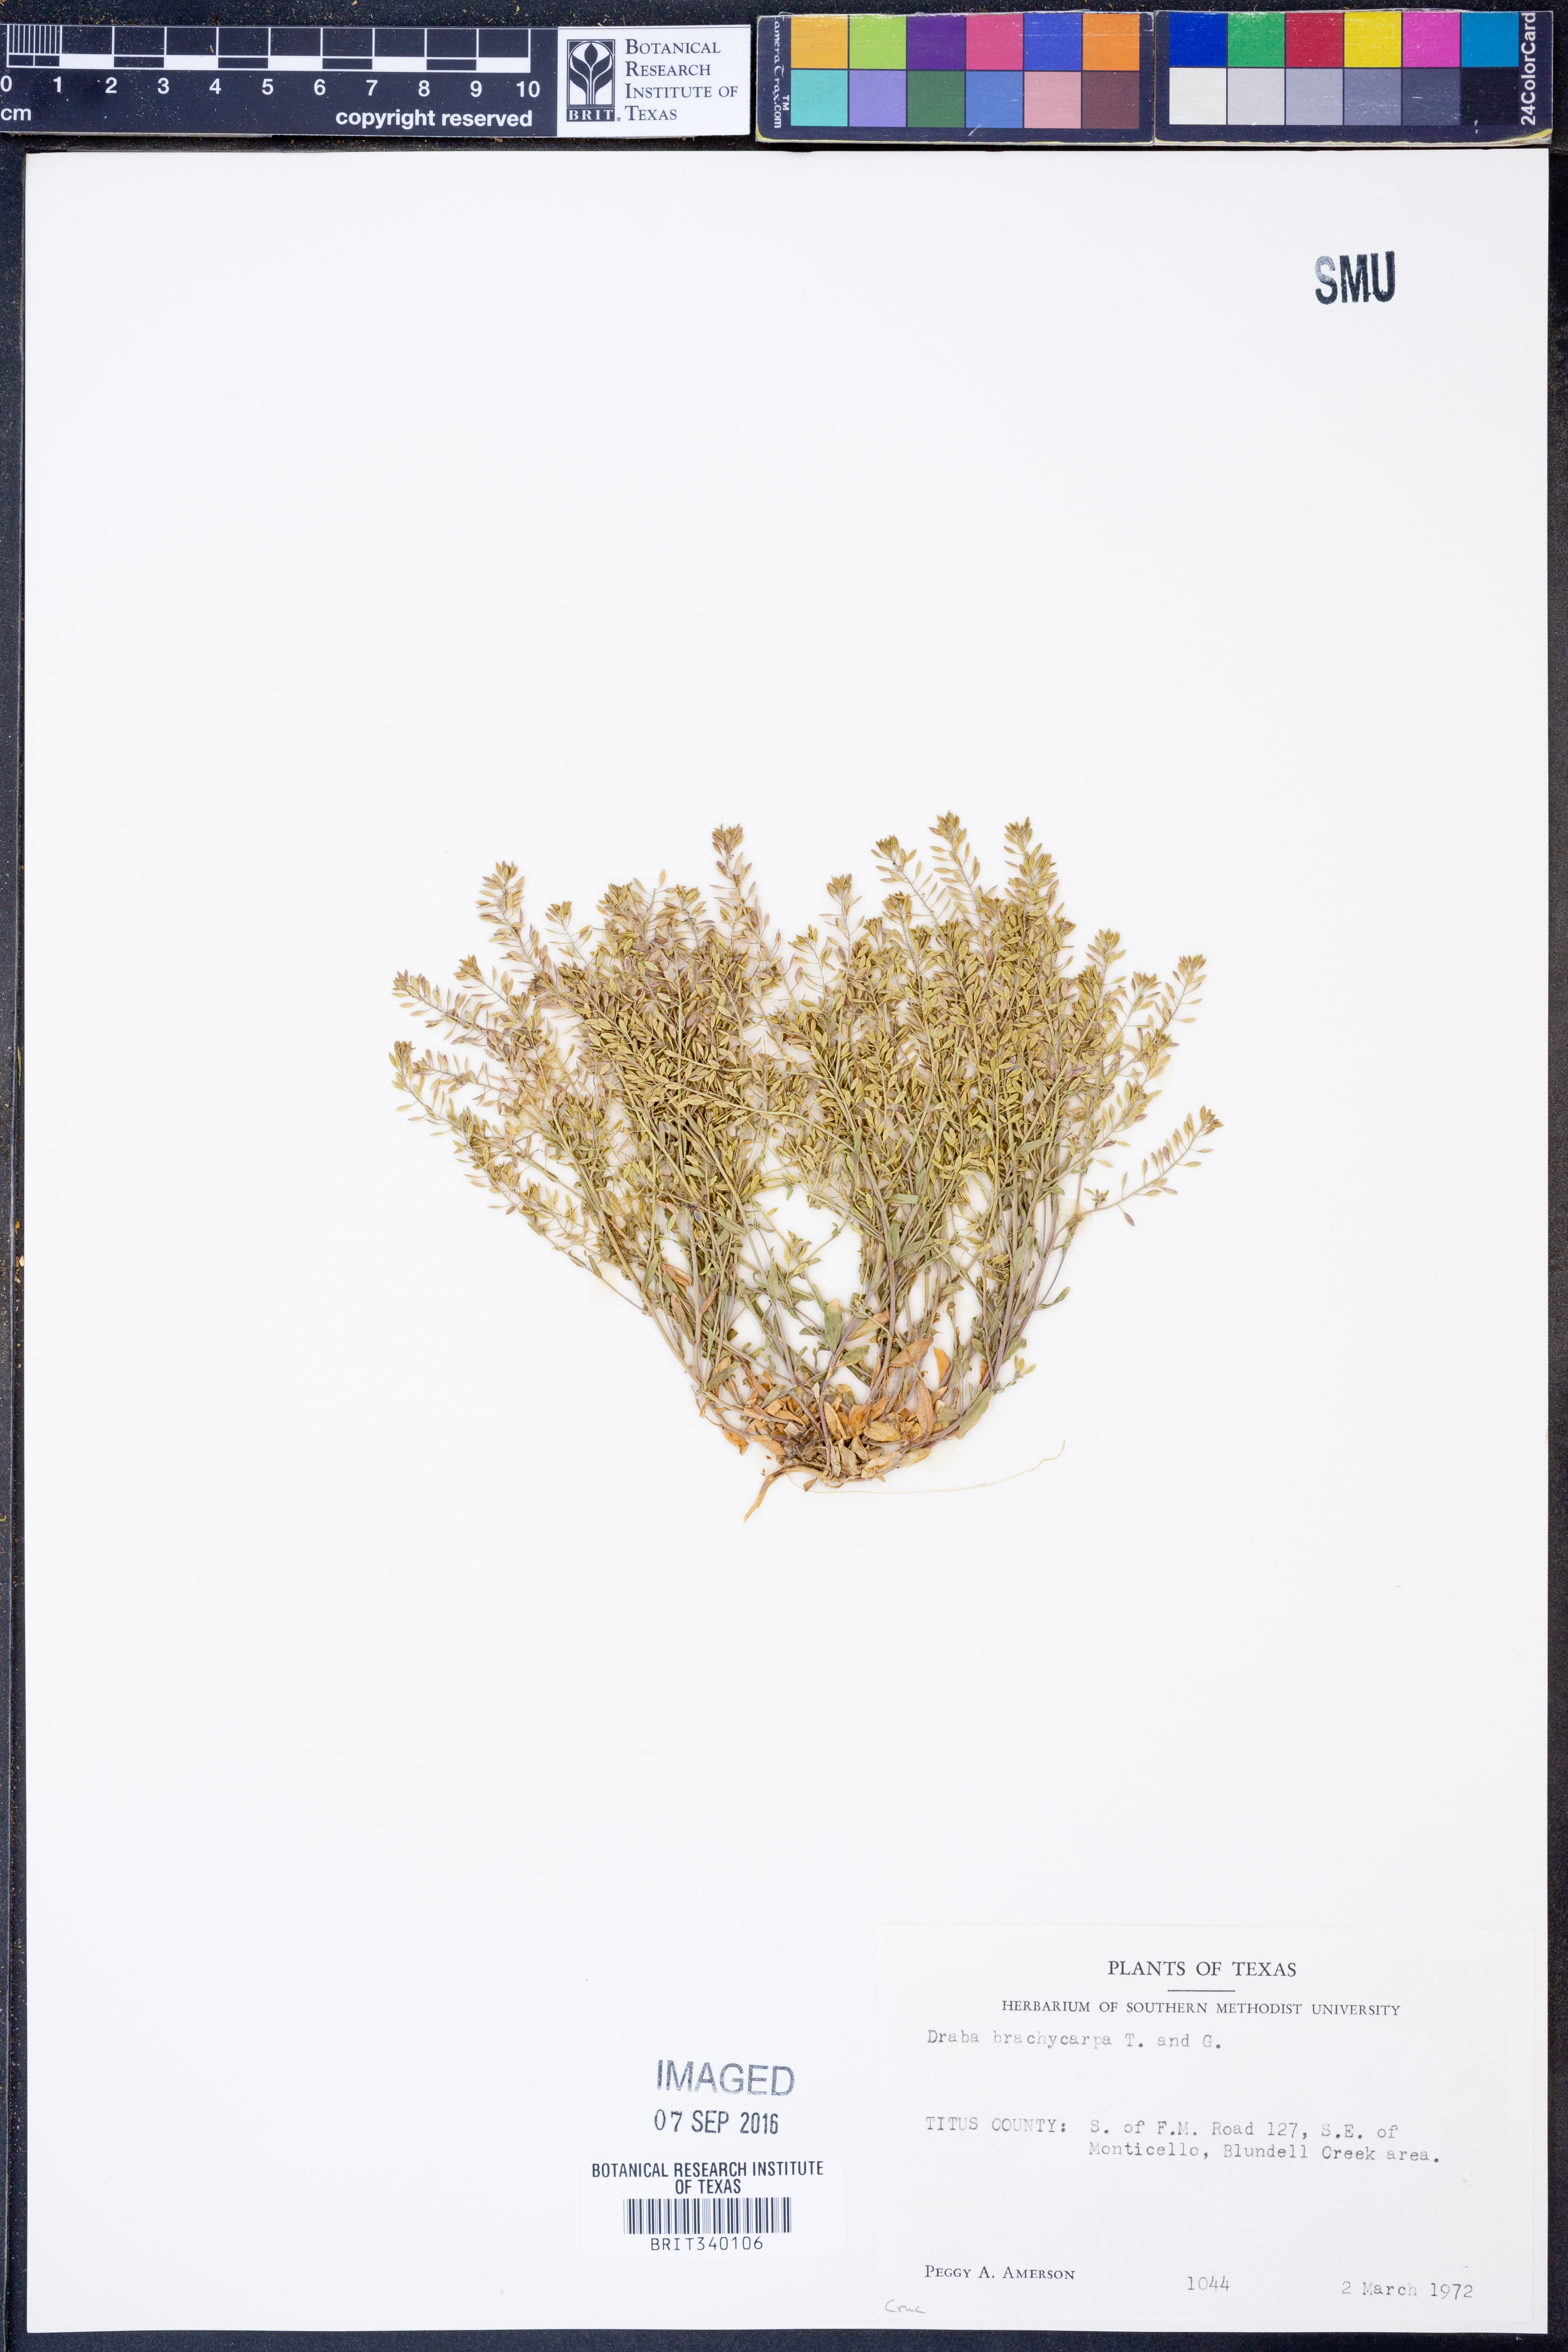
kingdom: Plantae
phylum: Tracheophyta
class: Magnoliopsida
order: Brassicales
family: Brassicaceae
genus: Abdra
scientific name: Abdra brachycarpa
